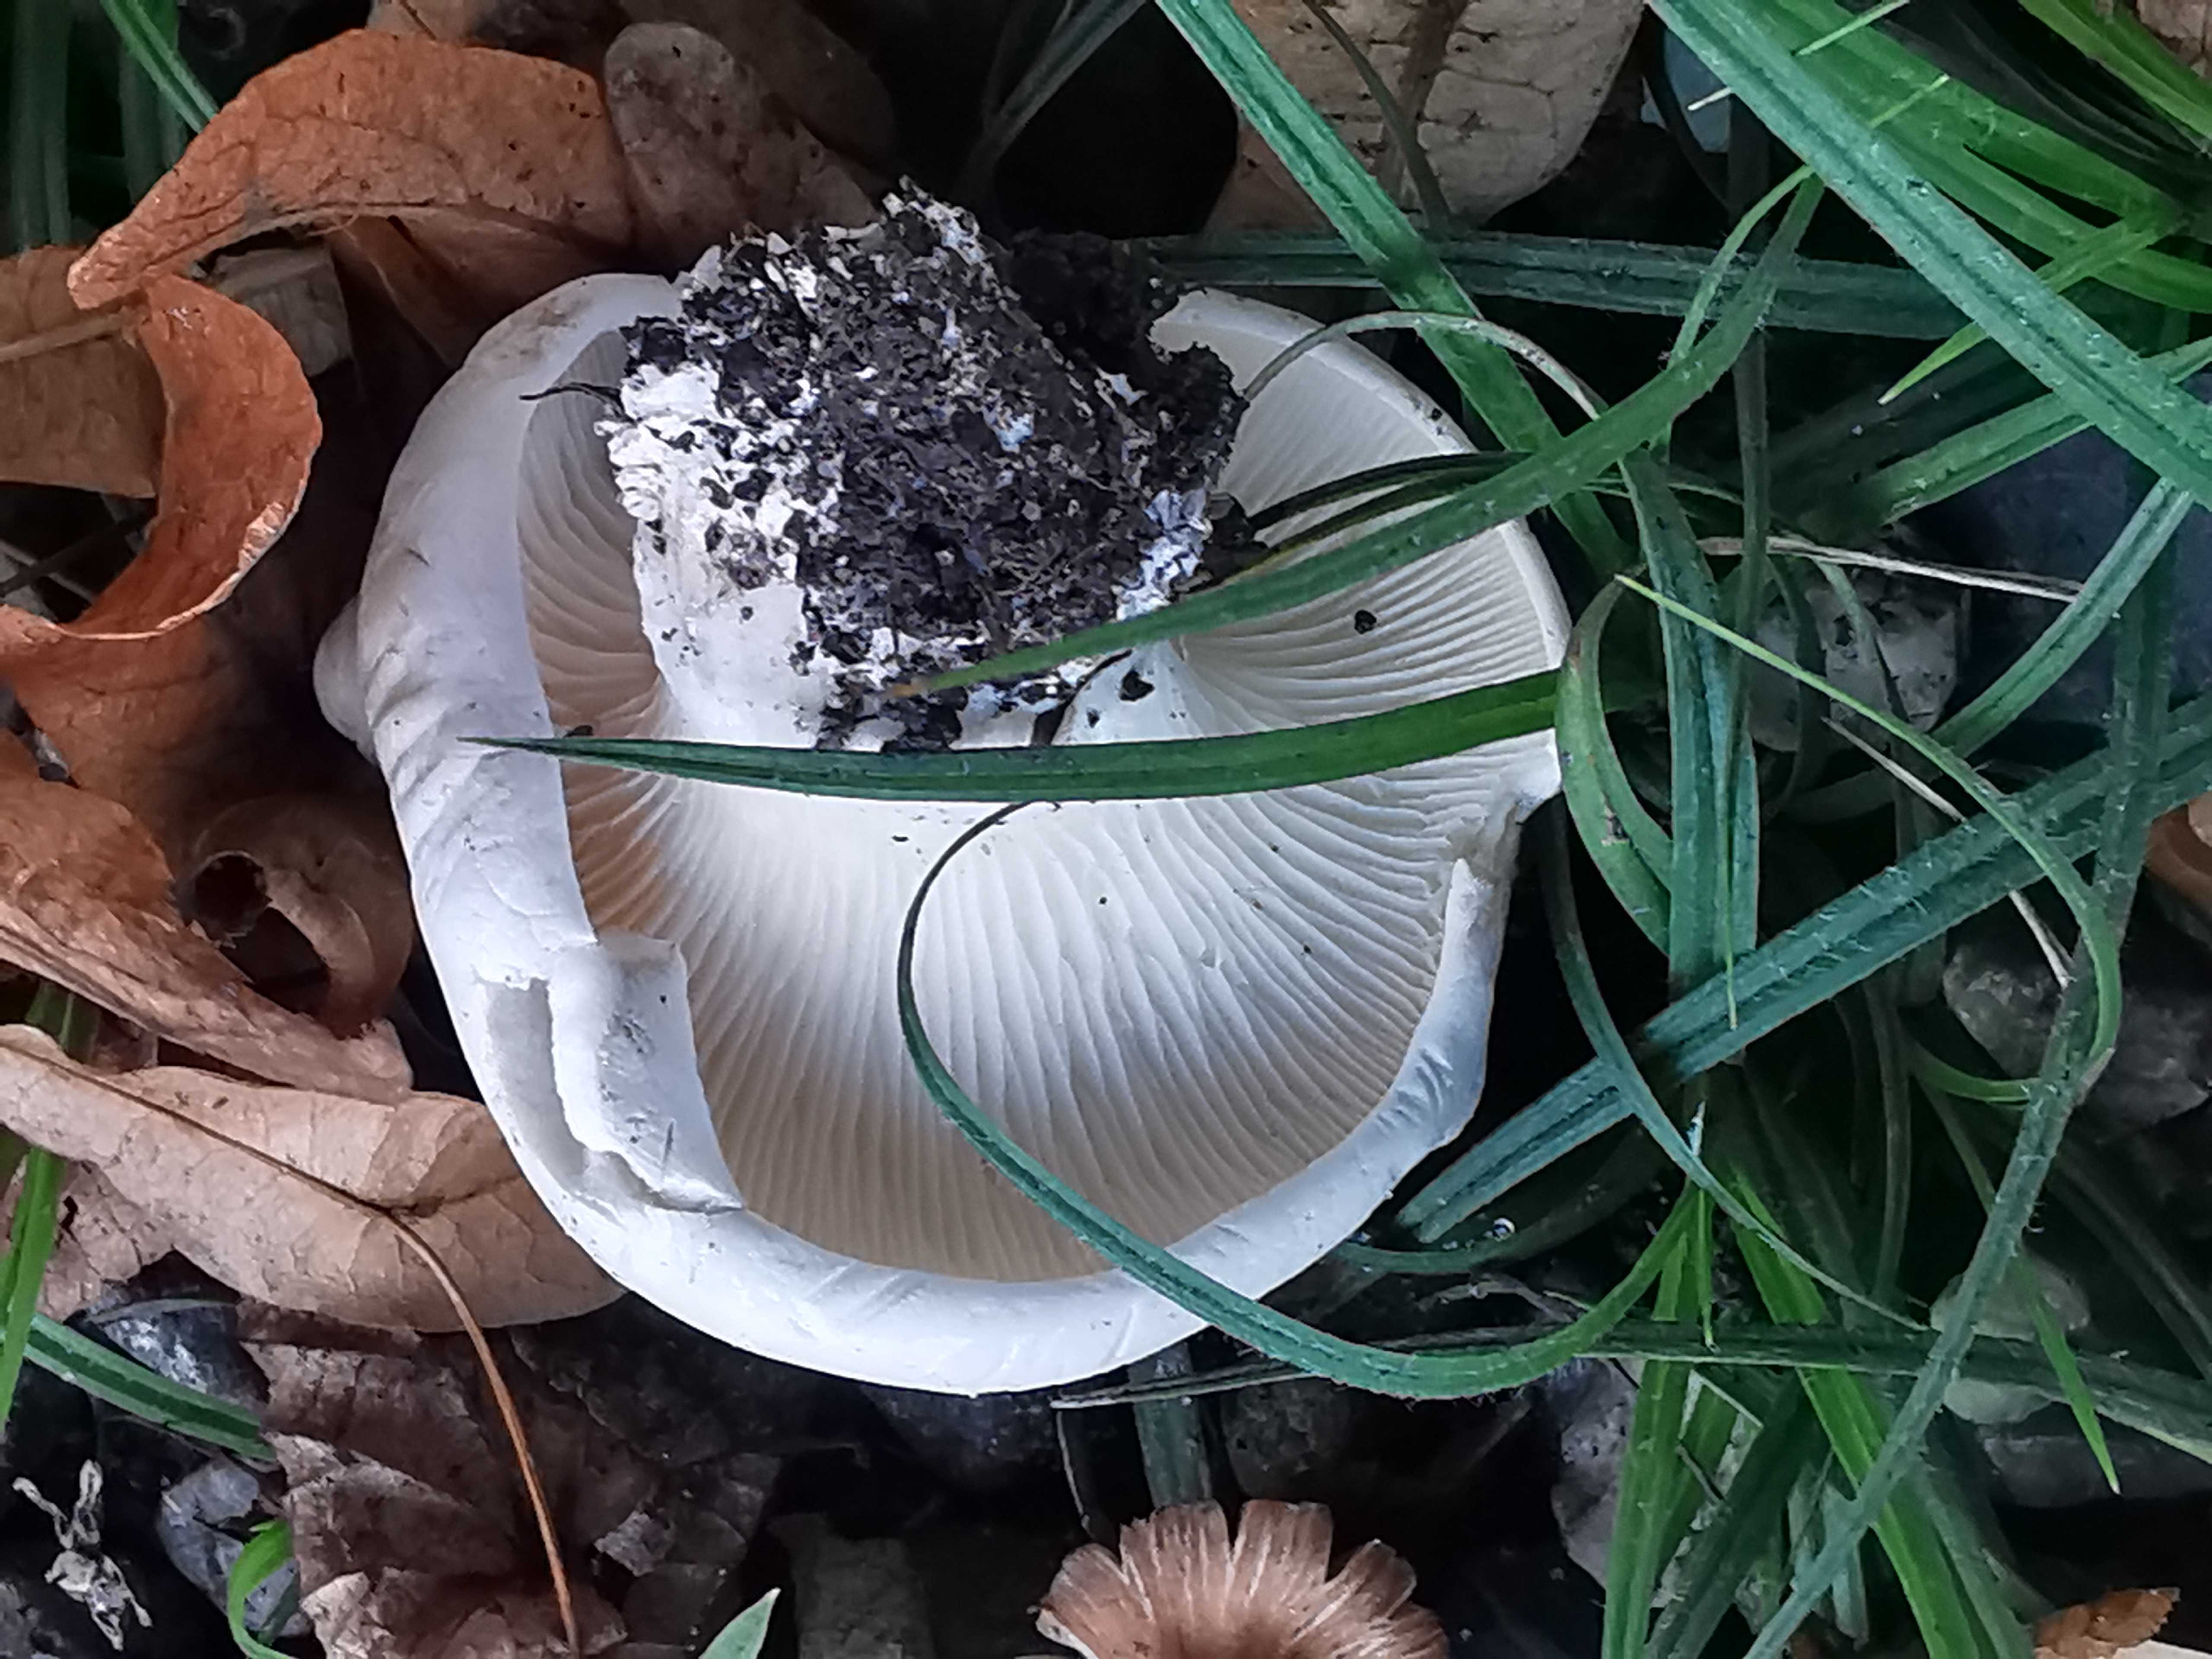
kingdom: Fungi
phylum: Basidiomycota
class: Agaricomycetes
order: Agaricales
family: Entolomataceae
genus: Clitopilus
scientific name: Clitopilus prunulus
